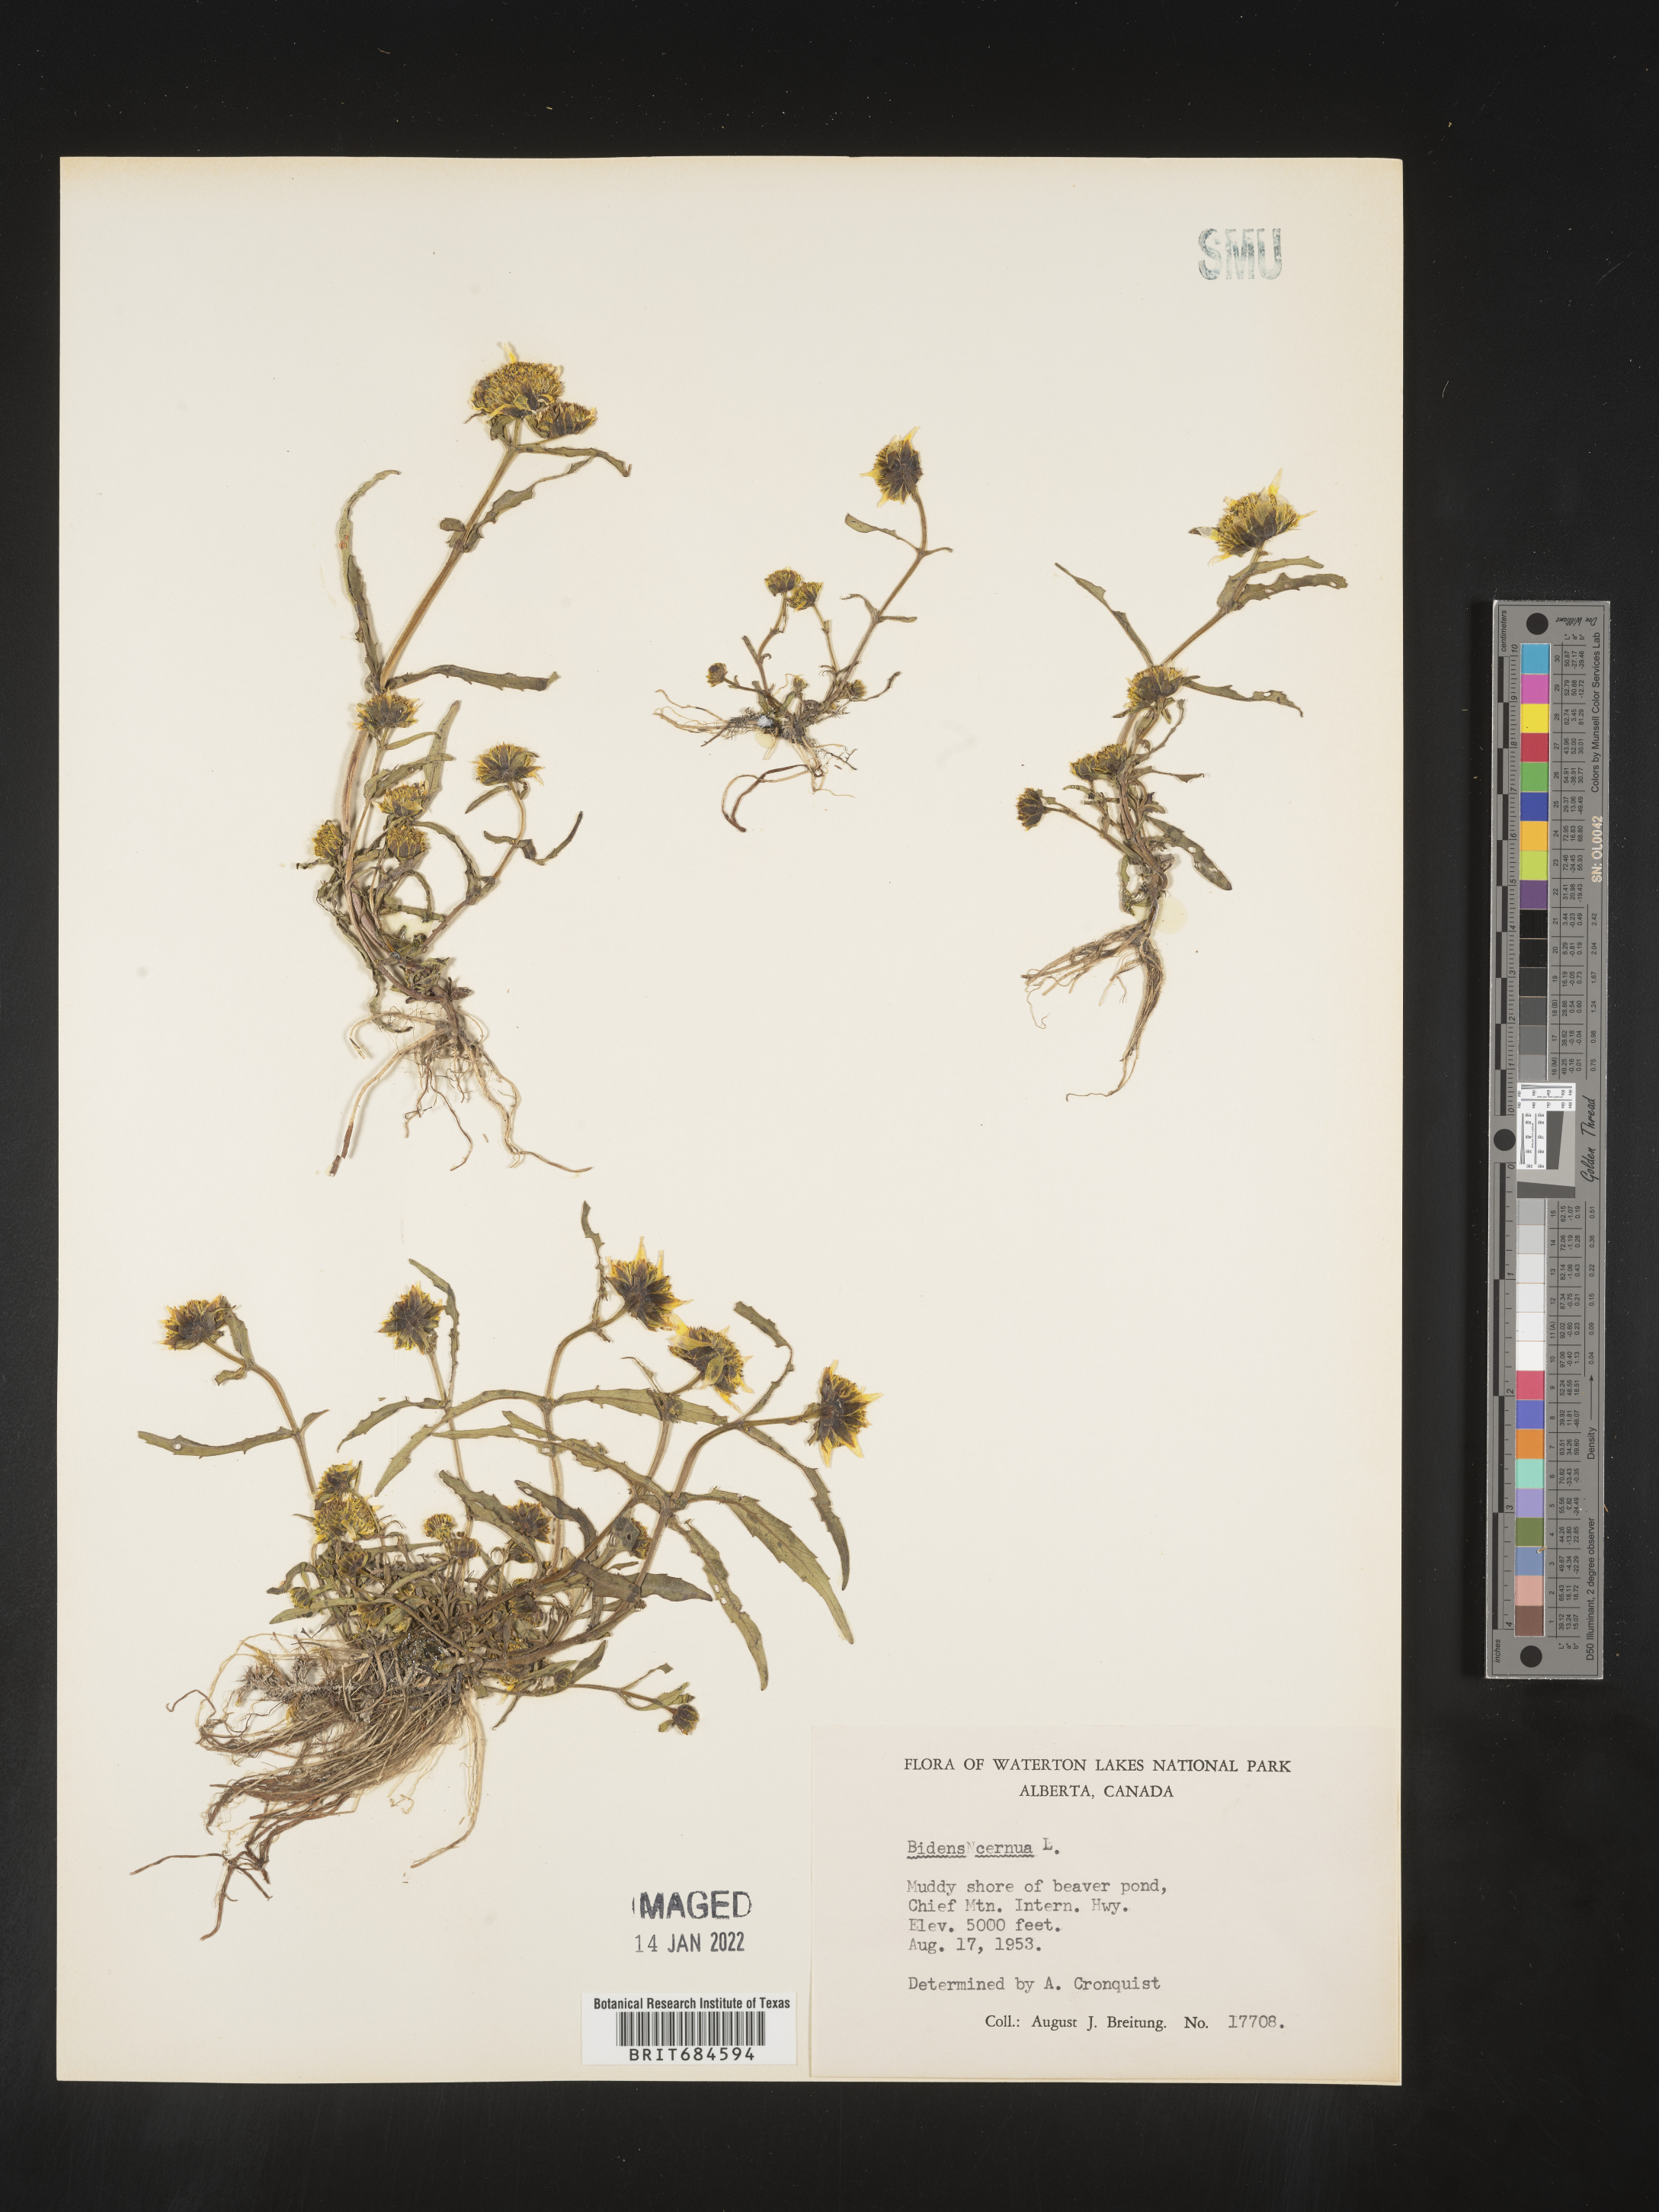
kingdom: Plantae
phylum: Tracheophyta
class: Magnoliopsida
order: Asterales
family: Asteraceae
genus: Bidens
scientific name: Bidens cernua
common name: Nodding bur-marigold
